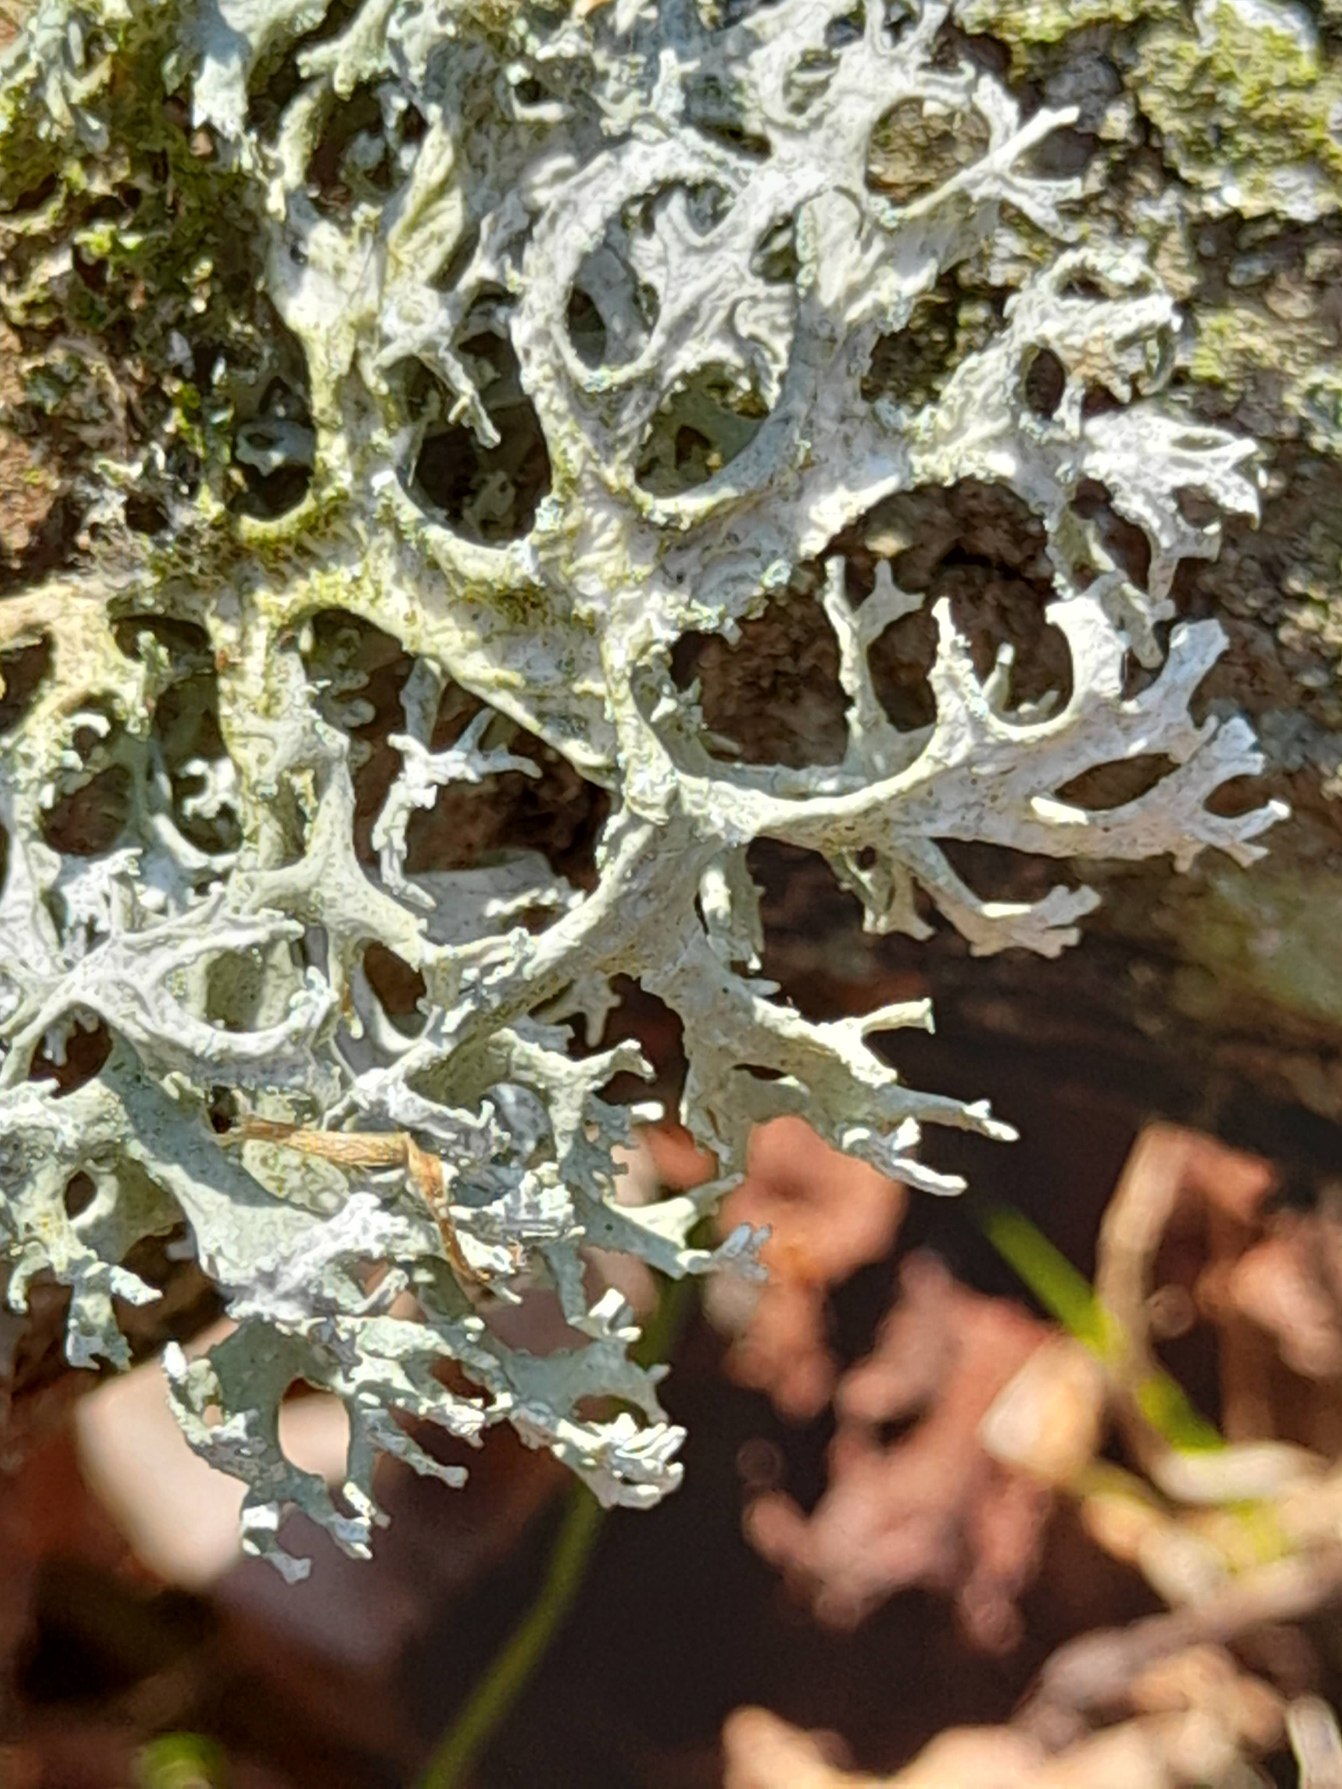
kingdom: Fungi
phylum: Ascomycota
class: Lecanoromycetes
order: Lecanorales
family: Parmeliaceae
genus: Evernia
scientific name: Evernia prunastri
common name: Almindelig slåenlav
